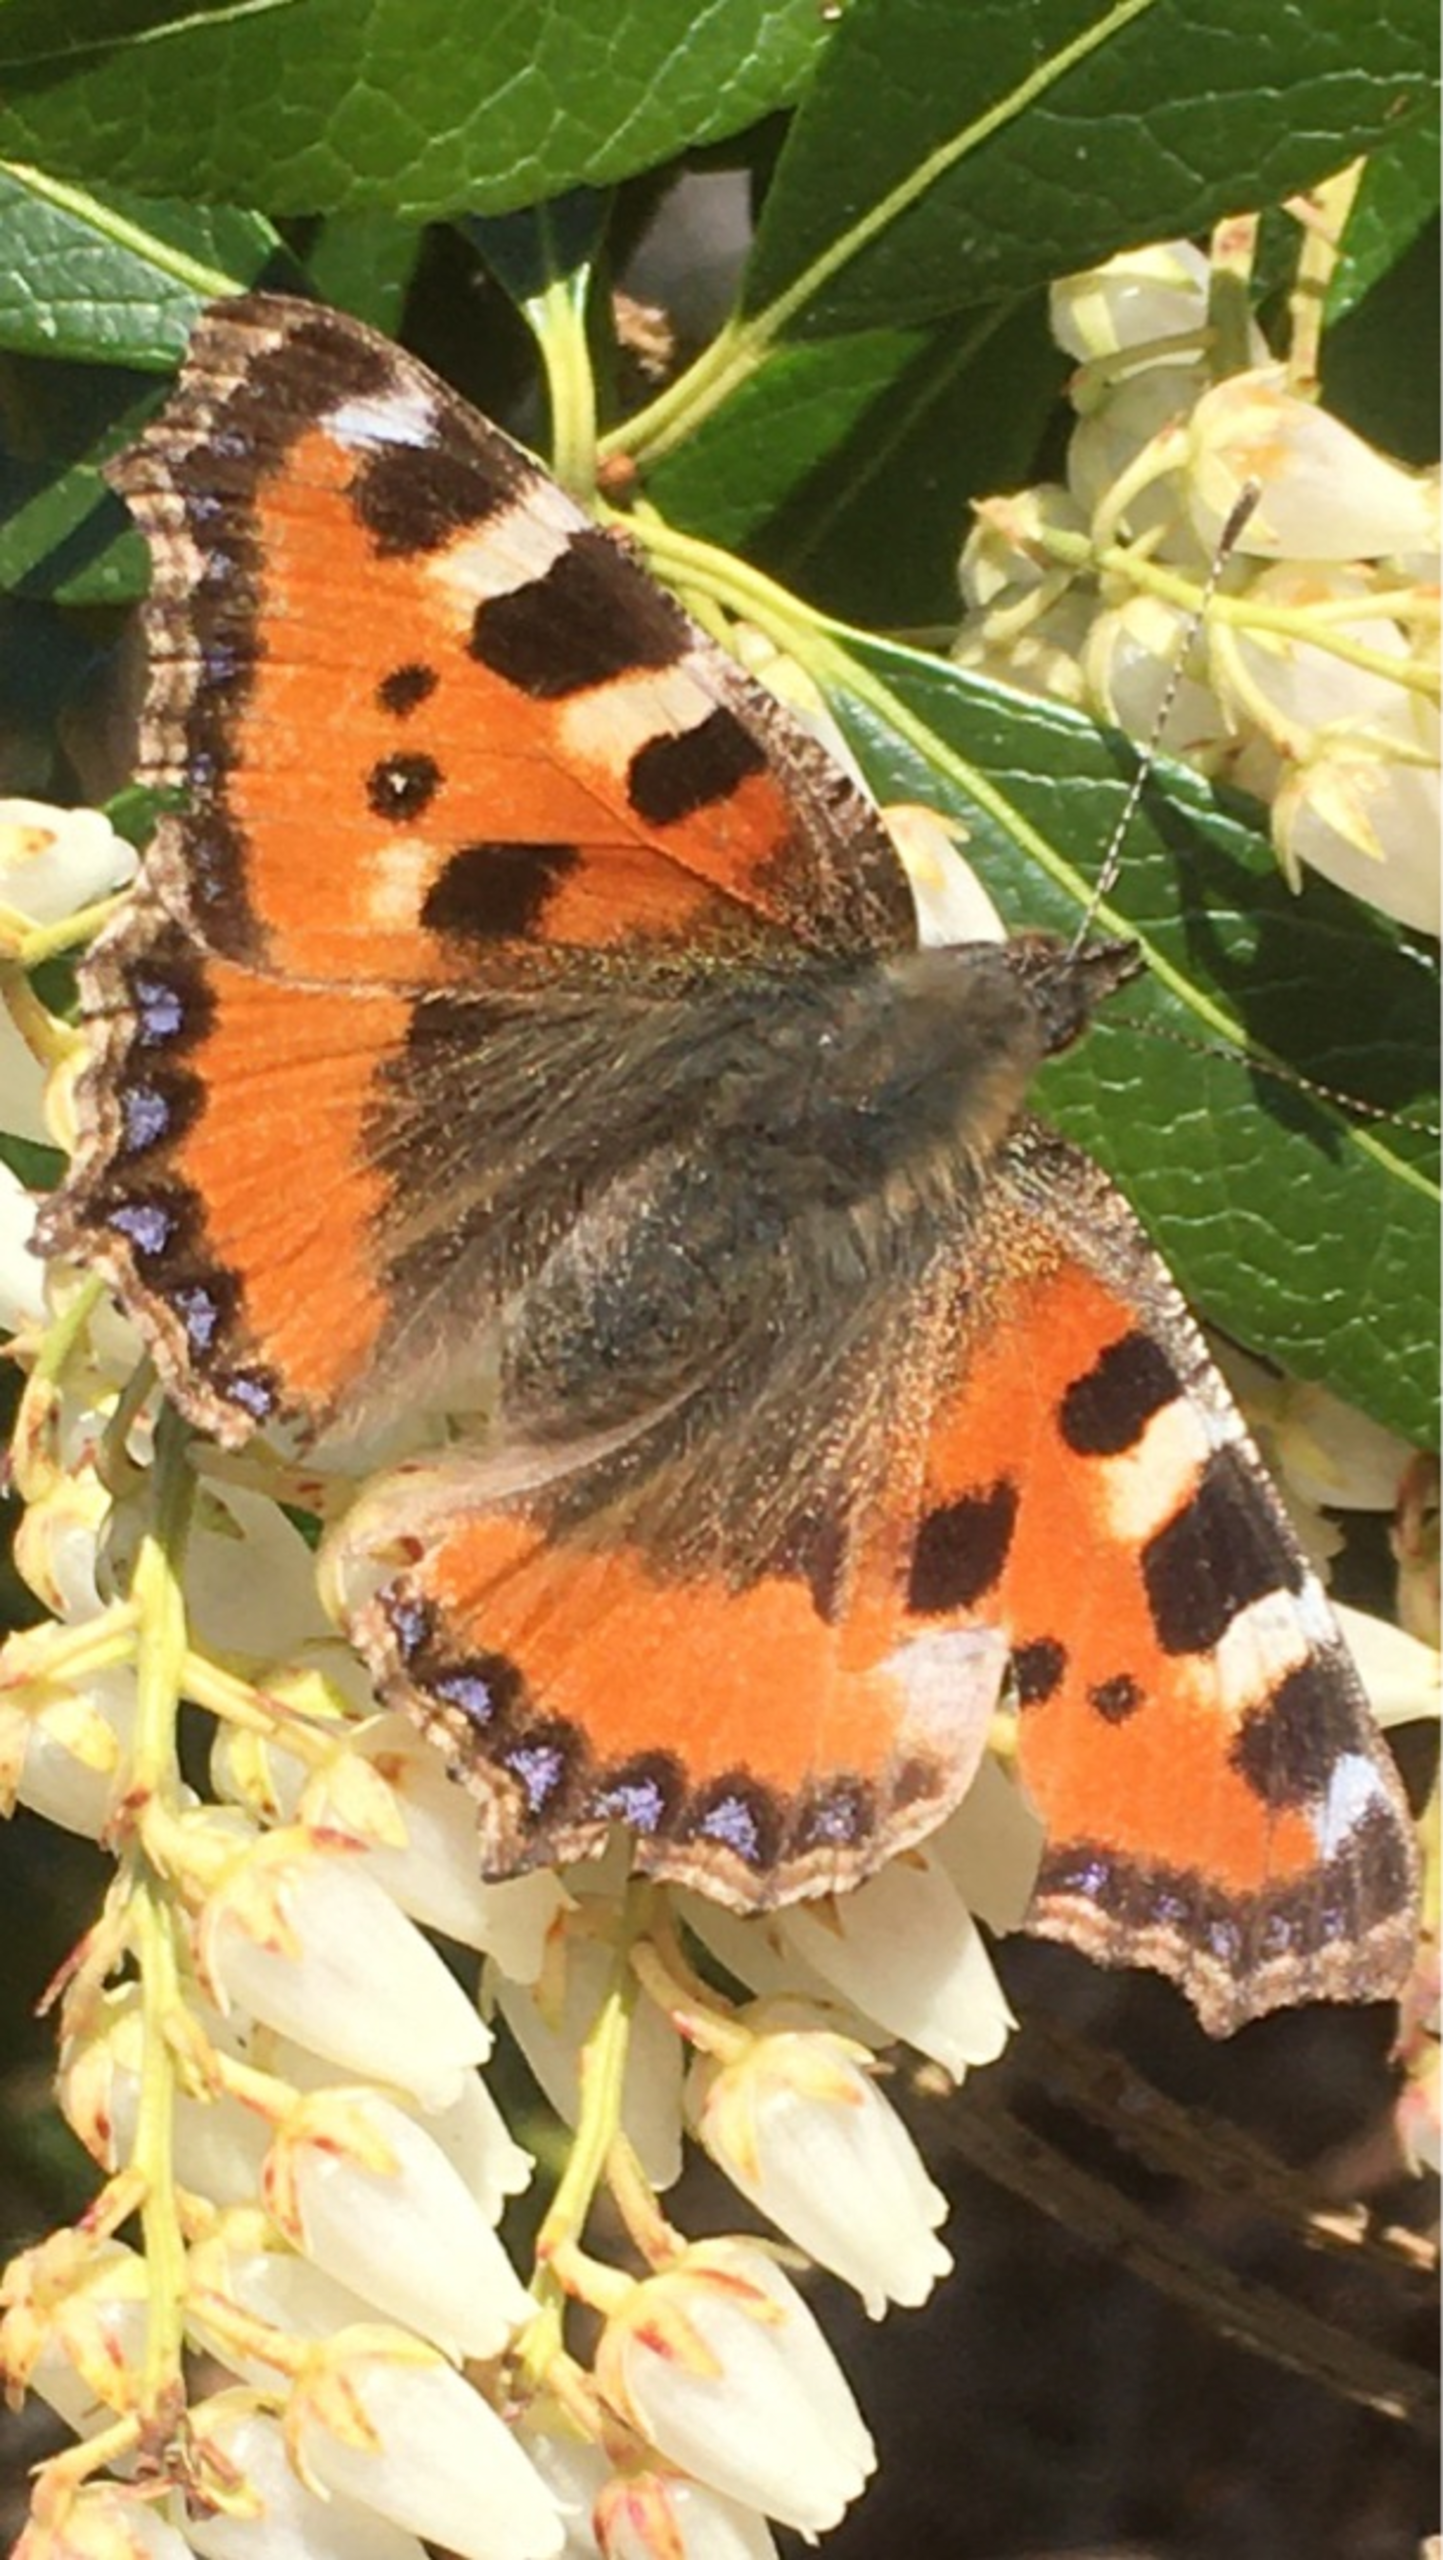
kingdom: Animalia
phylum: Arthropoda
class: Insecta
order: Lepidoptera
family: Nymphalidae
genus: Aglais
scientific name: Aglais urticae
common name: Nældens takvinge
